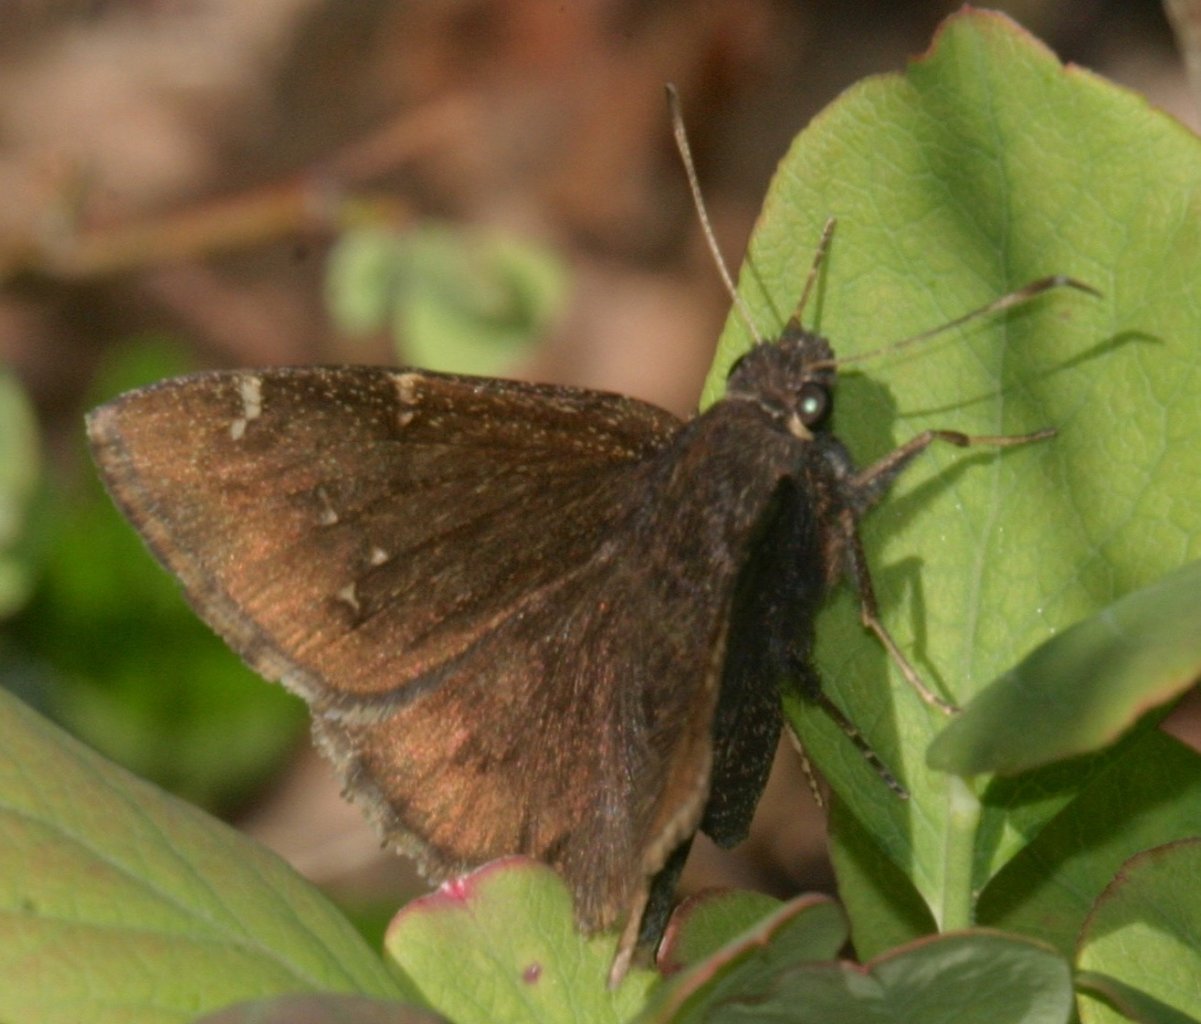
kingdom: Animalia
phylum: Arthropoda
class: Insecta
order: Lepidoptera
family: Hesperiidae
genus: Autochton
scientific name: Autochton
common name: Northern Cloudywing
